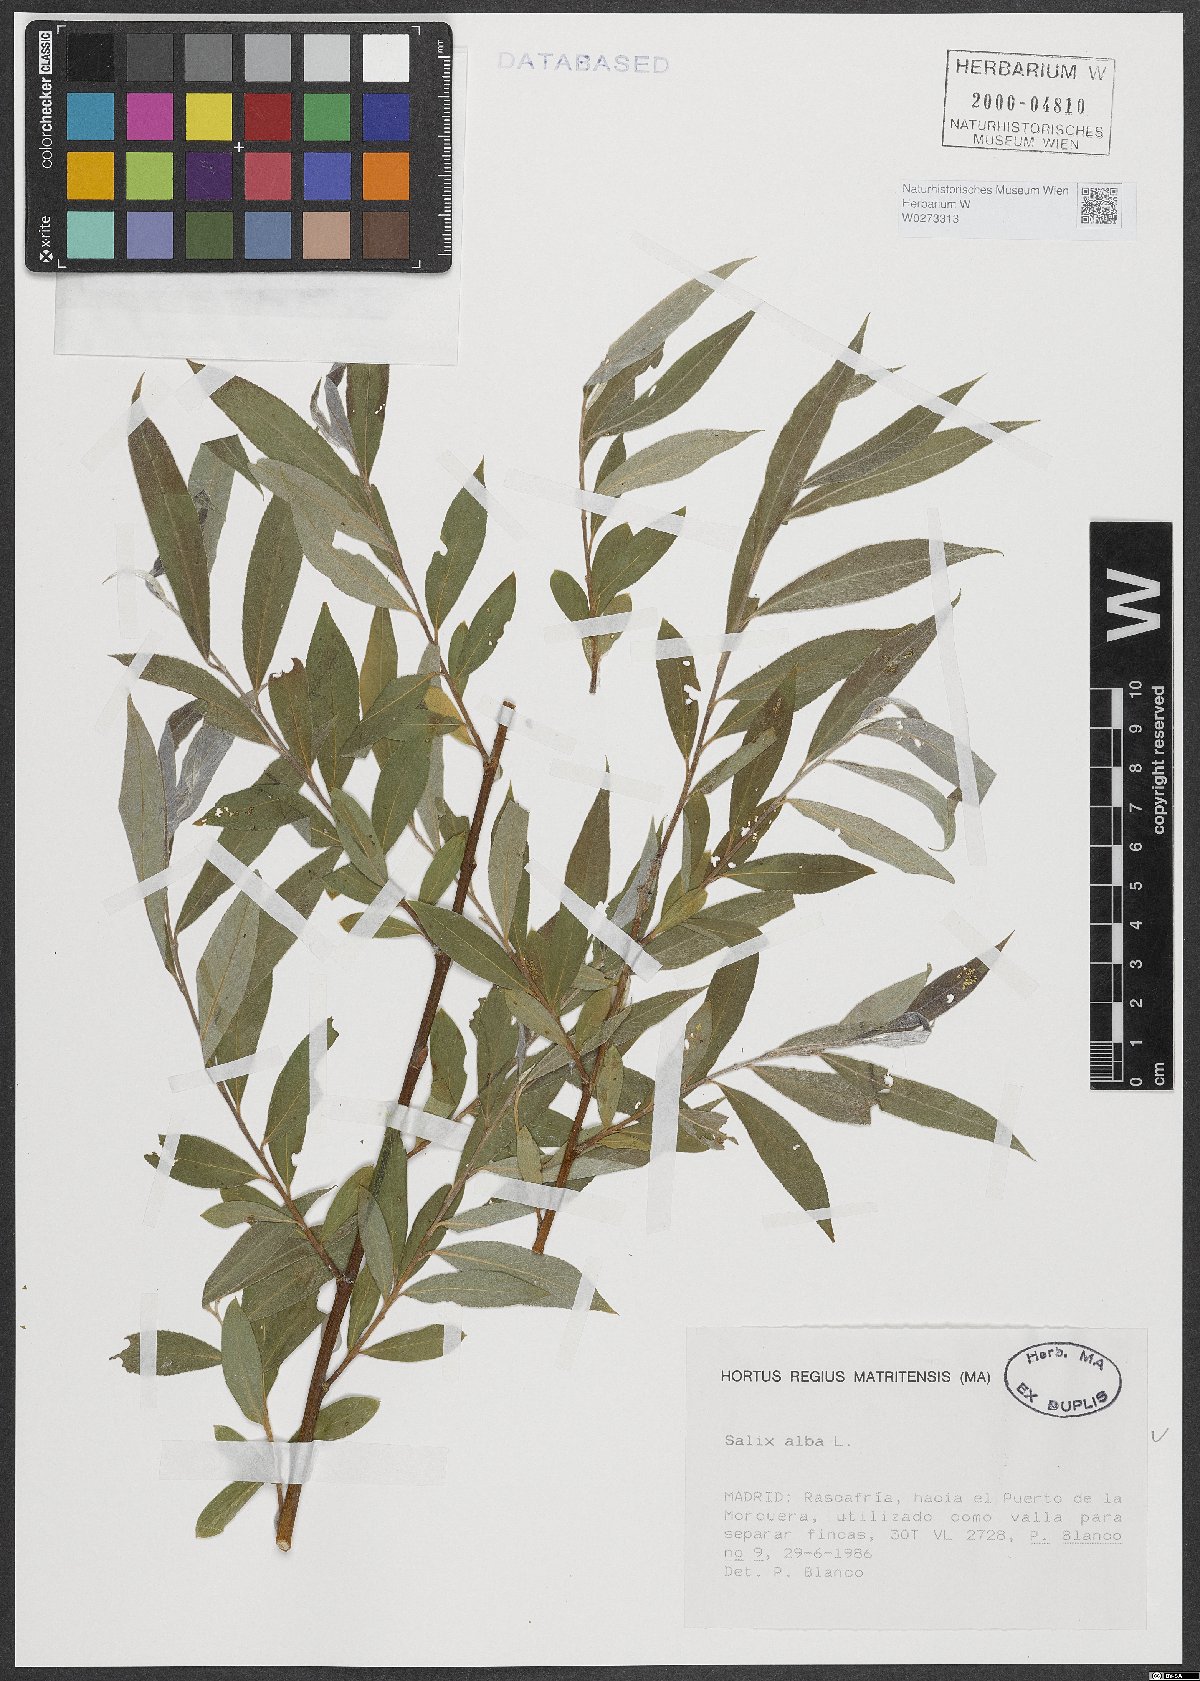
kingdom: Plantae
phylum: Tracheophyta
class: Magnoliopsida
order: Malpighiales
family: Salicaceae
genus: Salix
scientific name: Salix alba
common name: White willow
